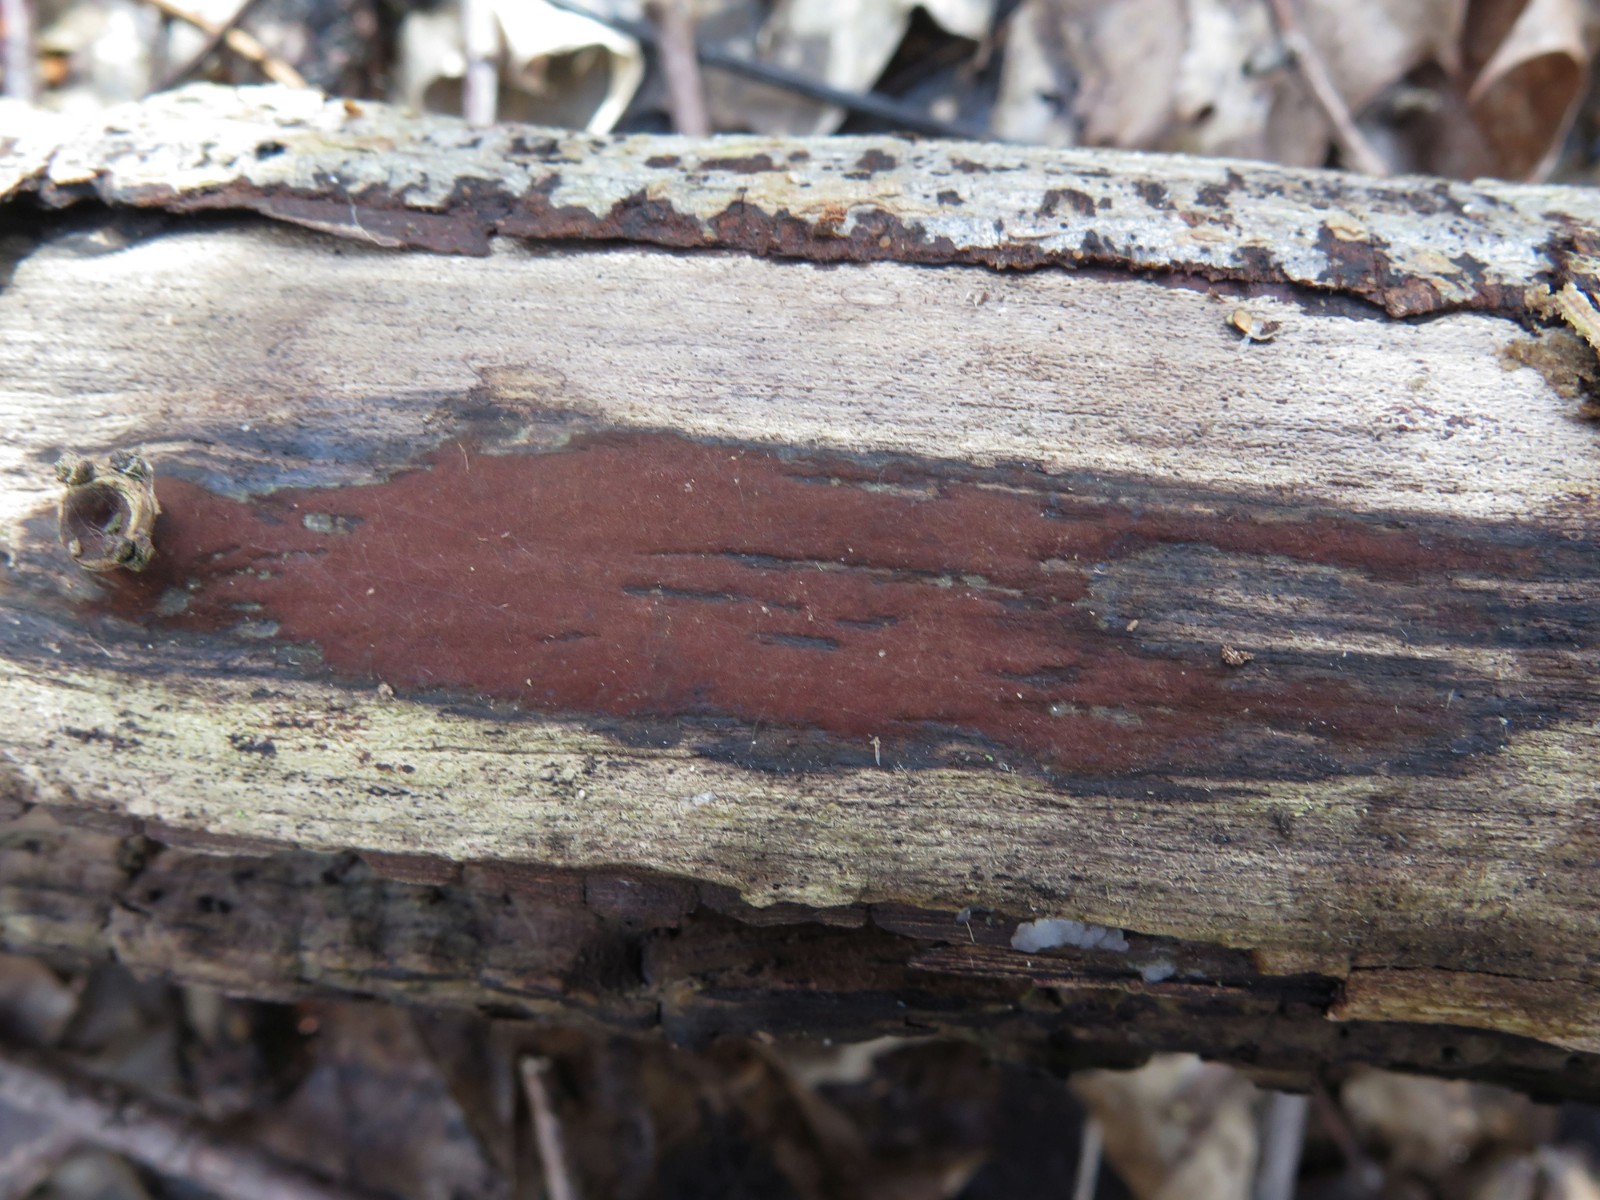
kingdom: Fungi
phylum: Ascomycota
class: Sordariomycetes
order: Xylariales
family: Hypoxylaceae
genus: Hypoxylon
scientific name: Hypoxylon petriniae
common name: nedsænket kulbær
